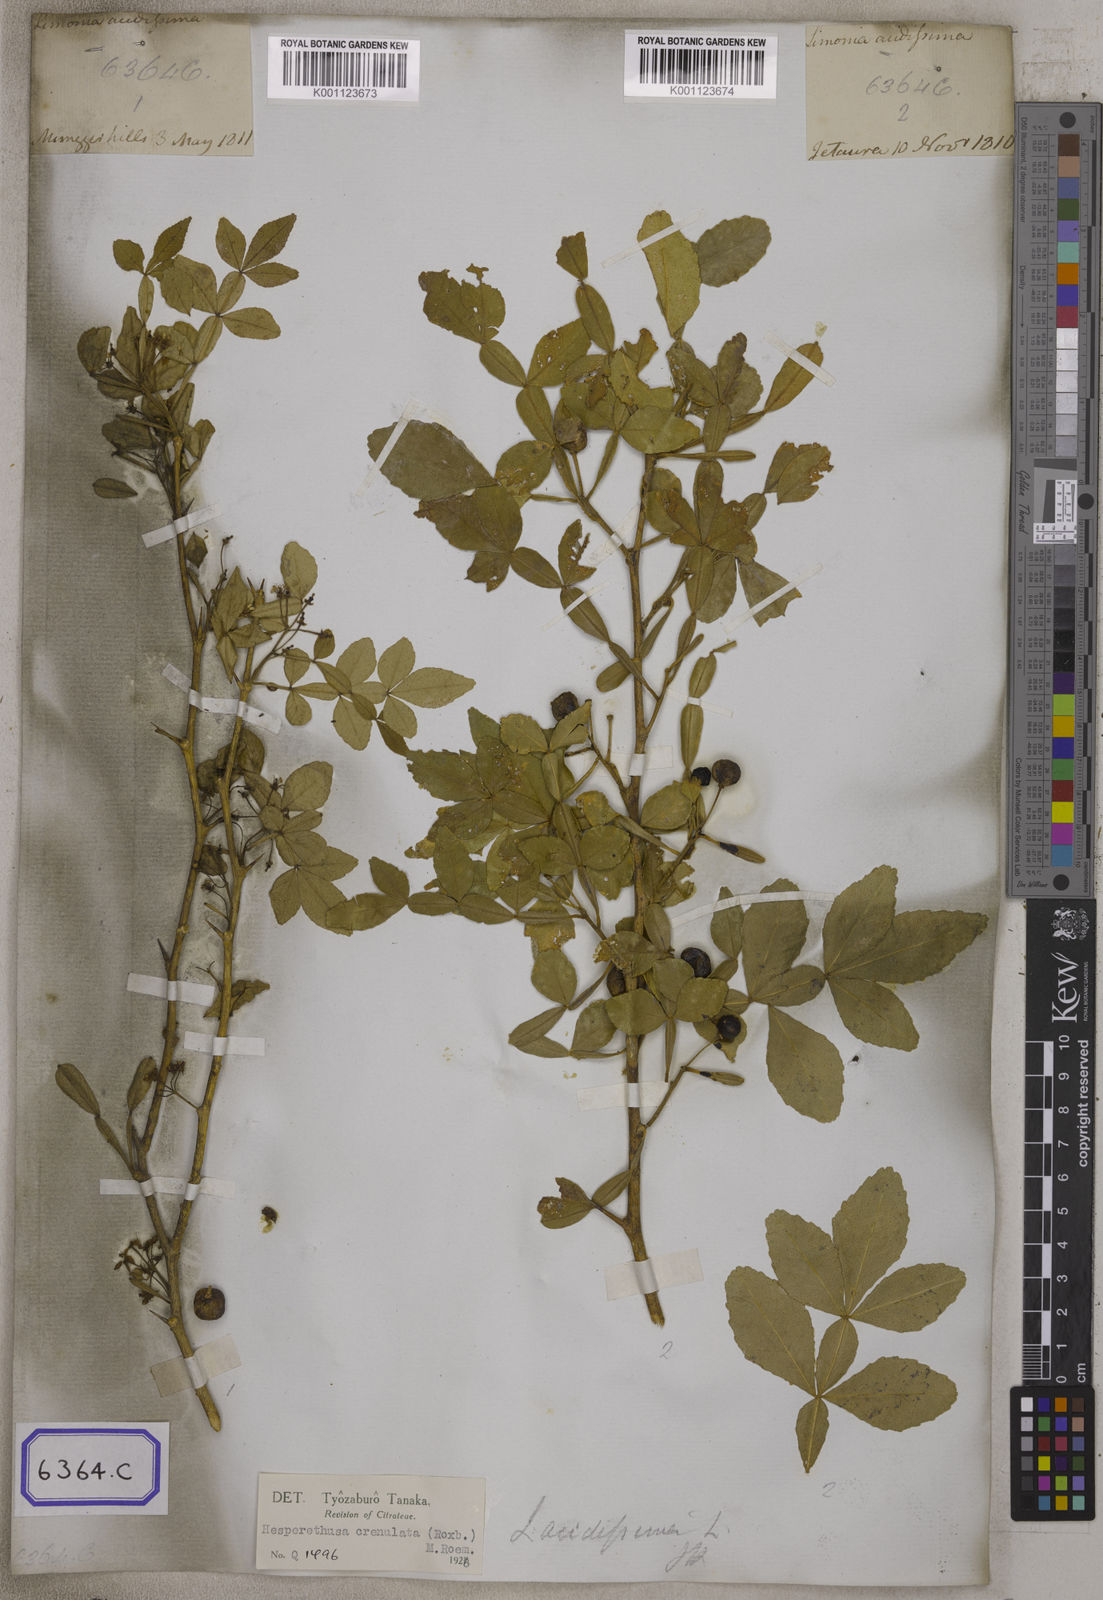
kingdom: Plantae
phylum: Tracheophyta
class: Magnoliopsida
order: Sapindales
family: Rutaceae
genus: Naringi
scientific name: Naringi crenulata
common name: Hesperethusa
